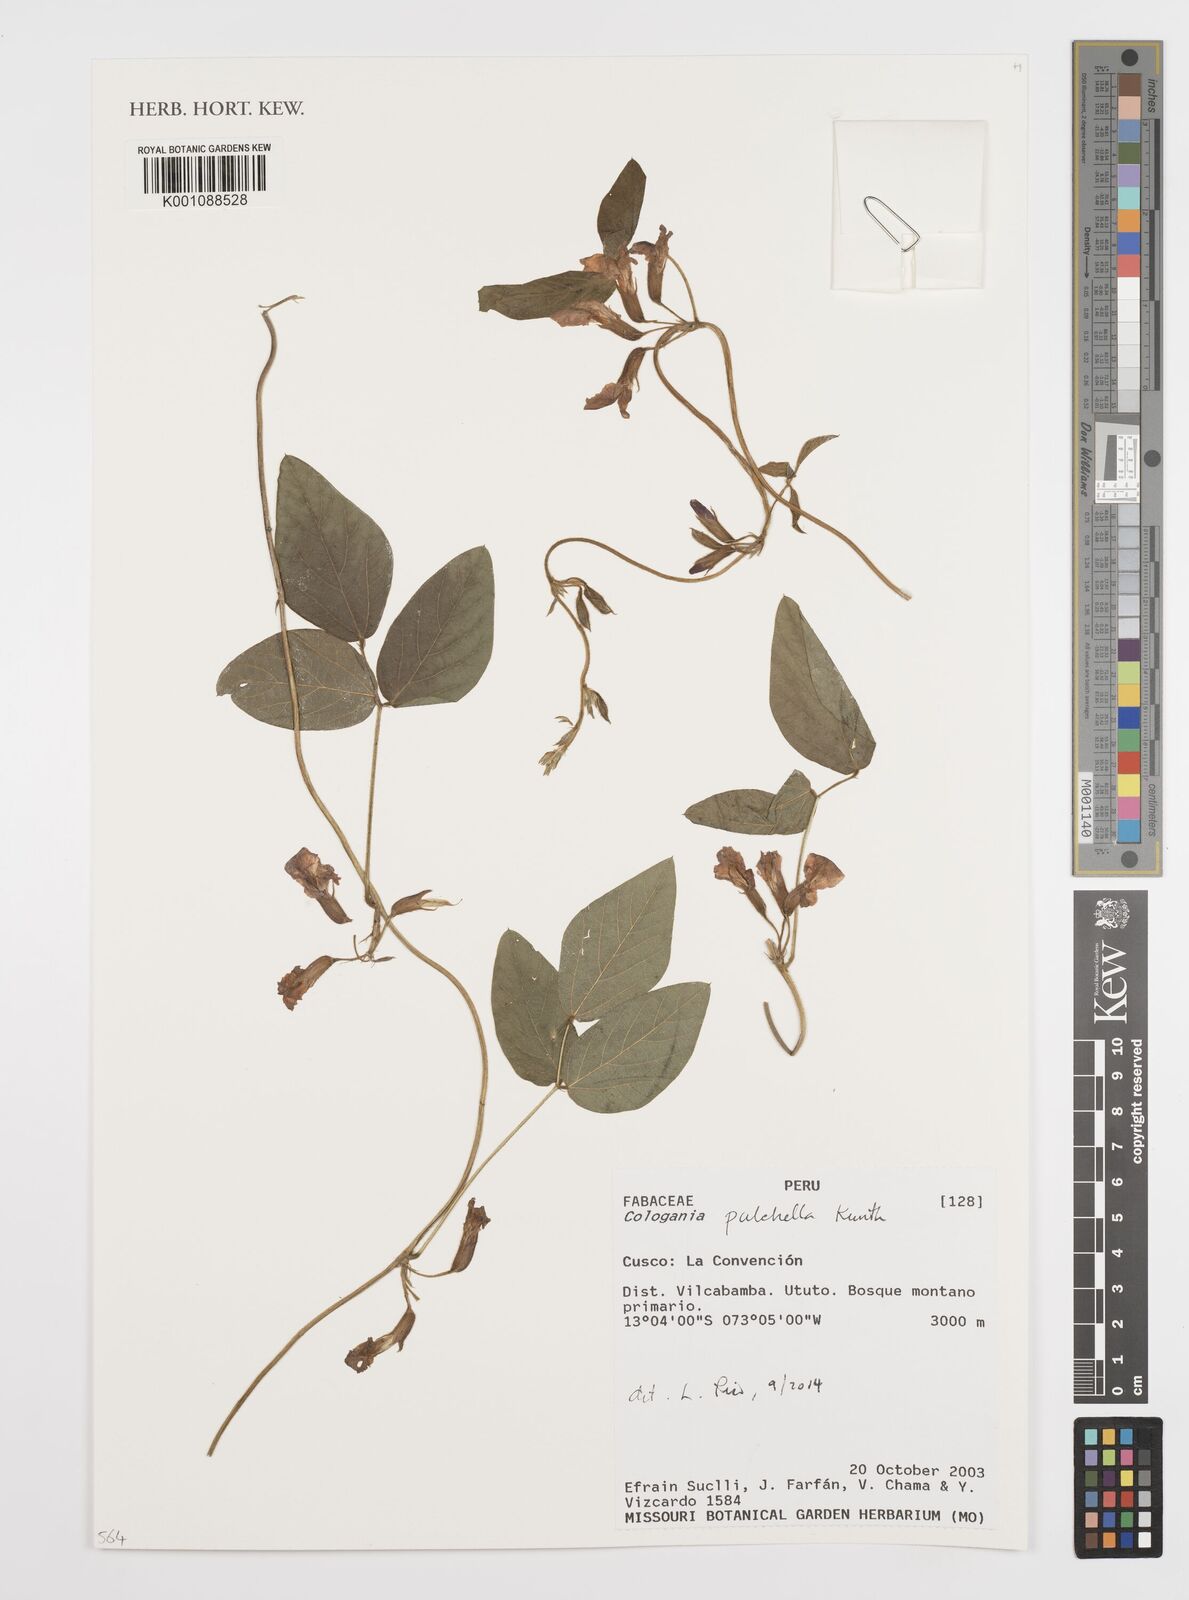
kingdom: Plantae
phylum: Tracheophyta
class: Magnoliopsida
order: Fabales
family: Fabaceae
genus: Cologania
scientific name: Cologania broussonetii
